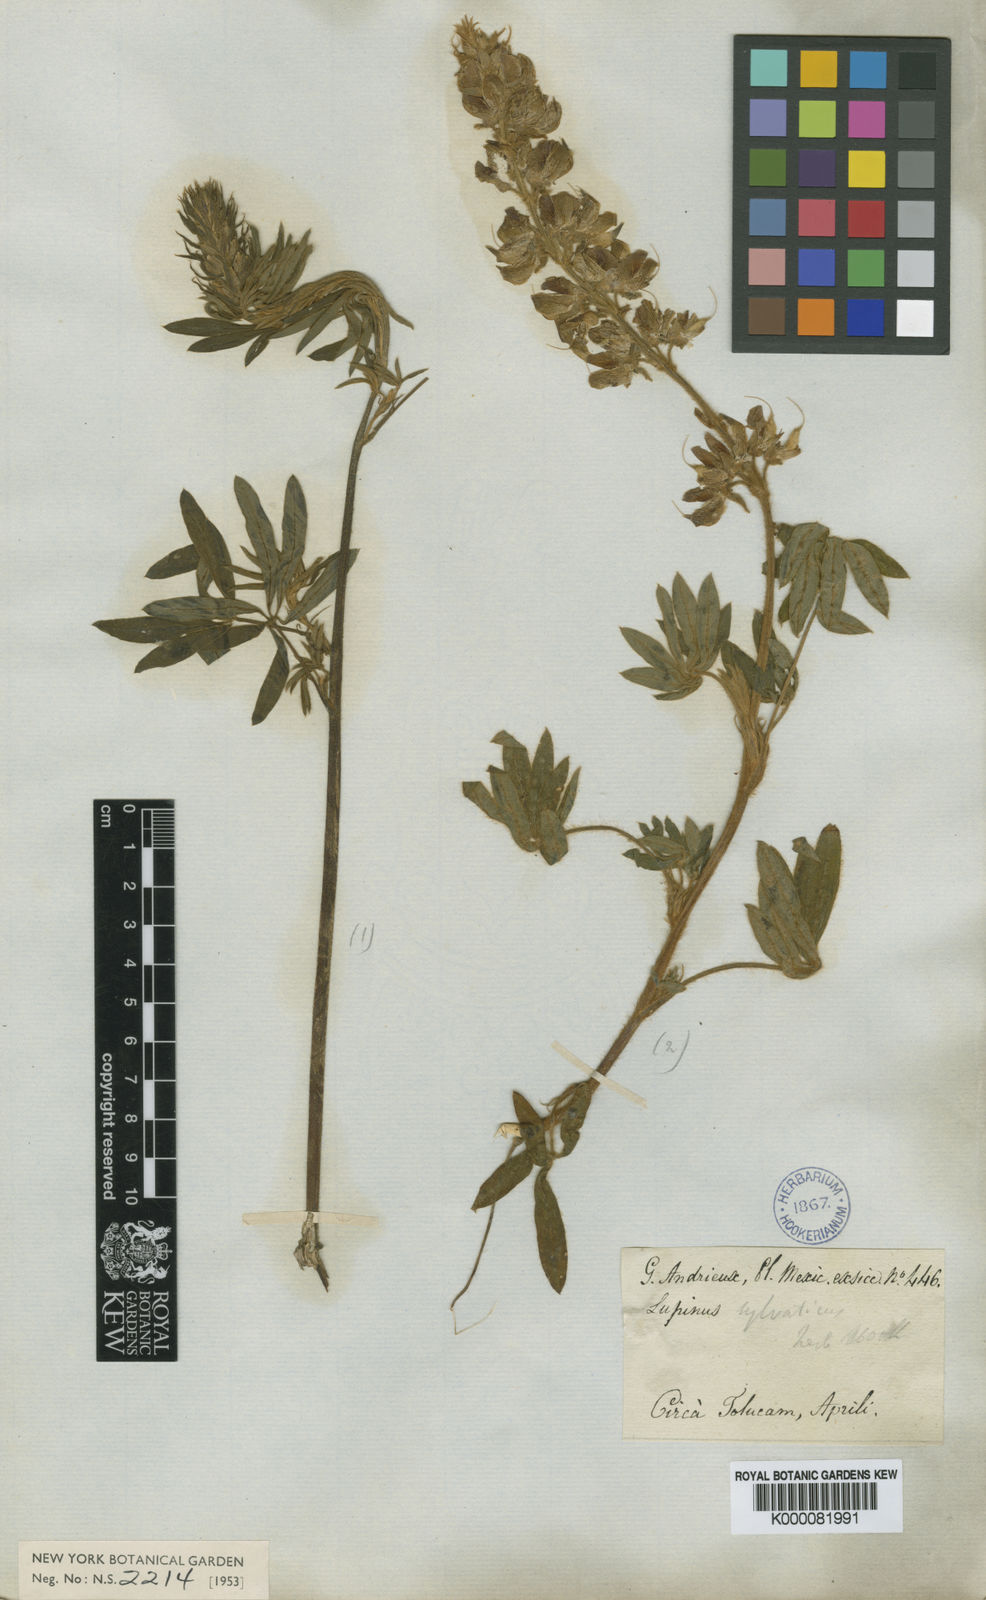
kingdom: Plantae
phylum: Tracheophyta
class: Magnoliopsida
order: Fabales
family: Fabaceae
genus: Lupinus
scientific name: Lupinus reflexus
